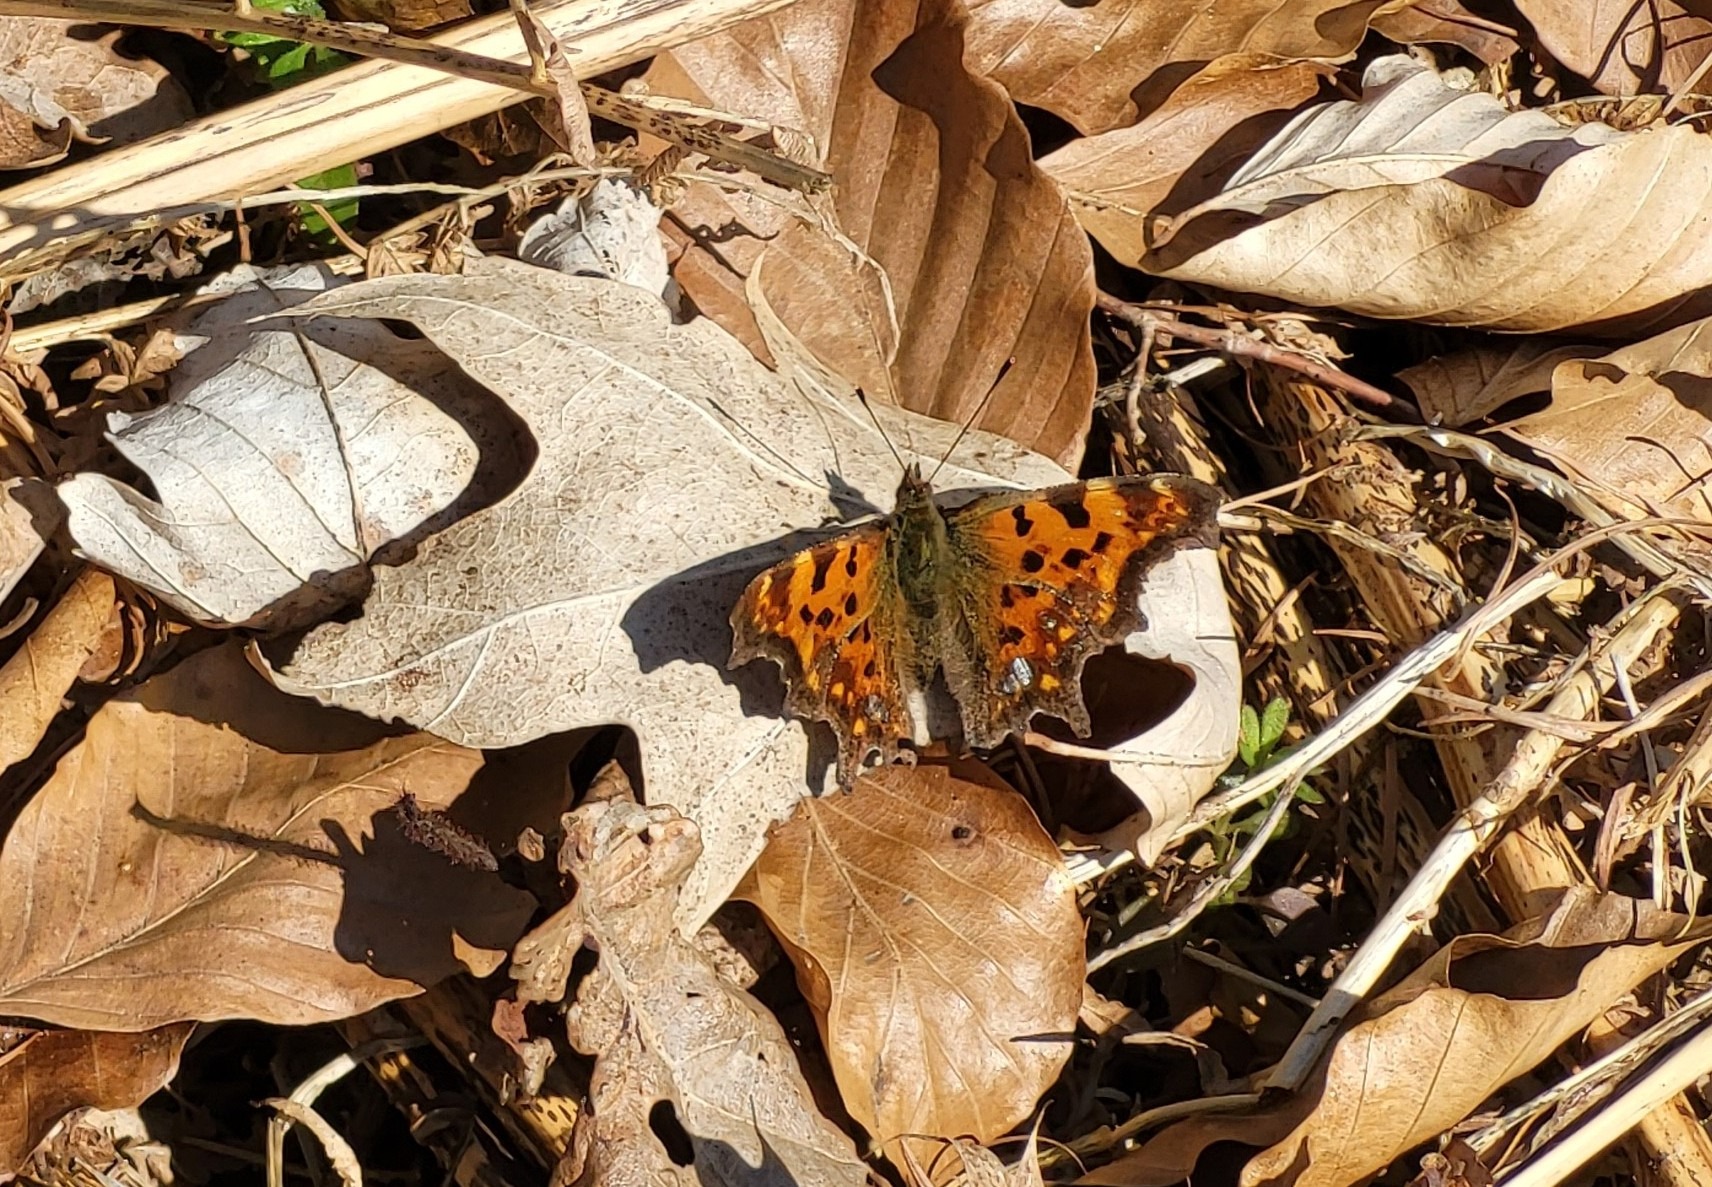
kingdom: Animalia
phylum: Arthropoda
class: Insecta
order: Lepidoptera
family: Nymphalidae
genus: Polygonia
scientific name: Polygonia c-album
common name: Det hvide C
